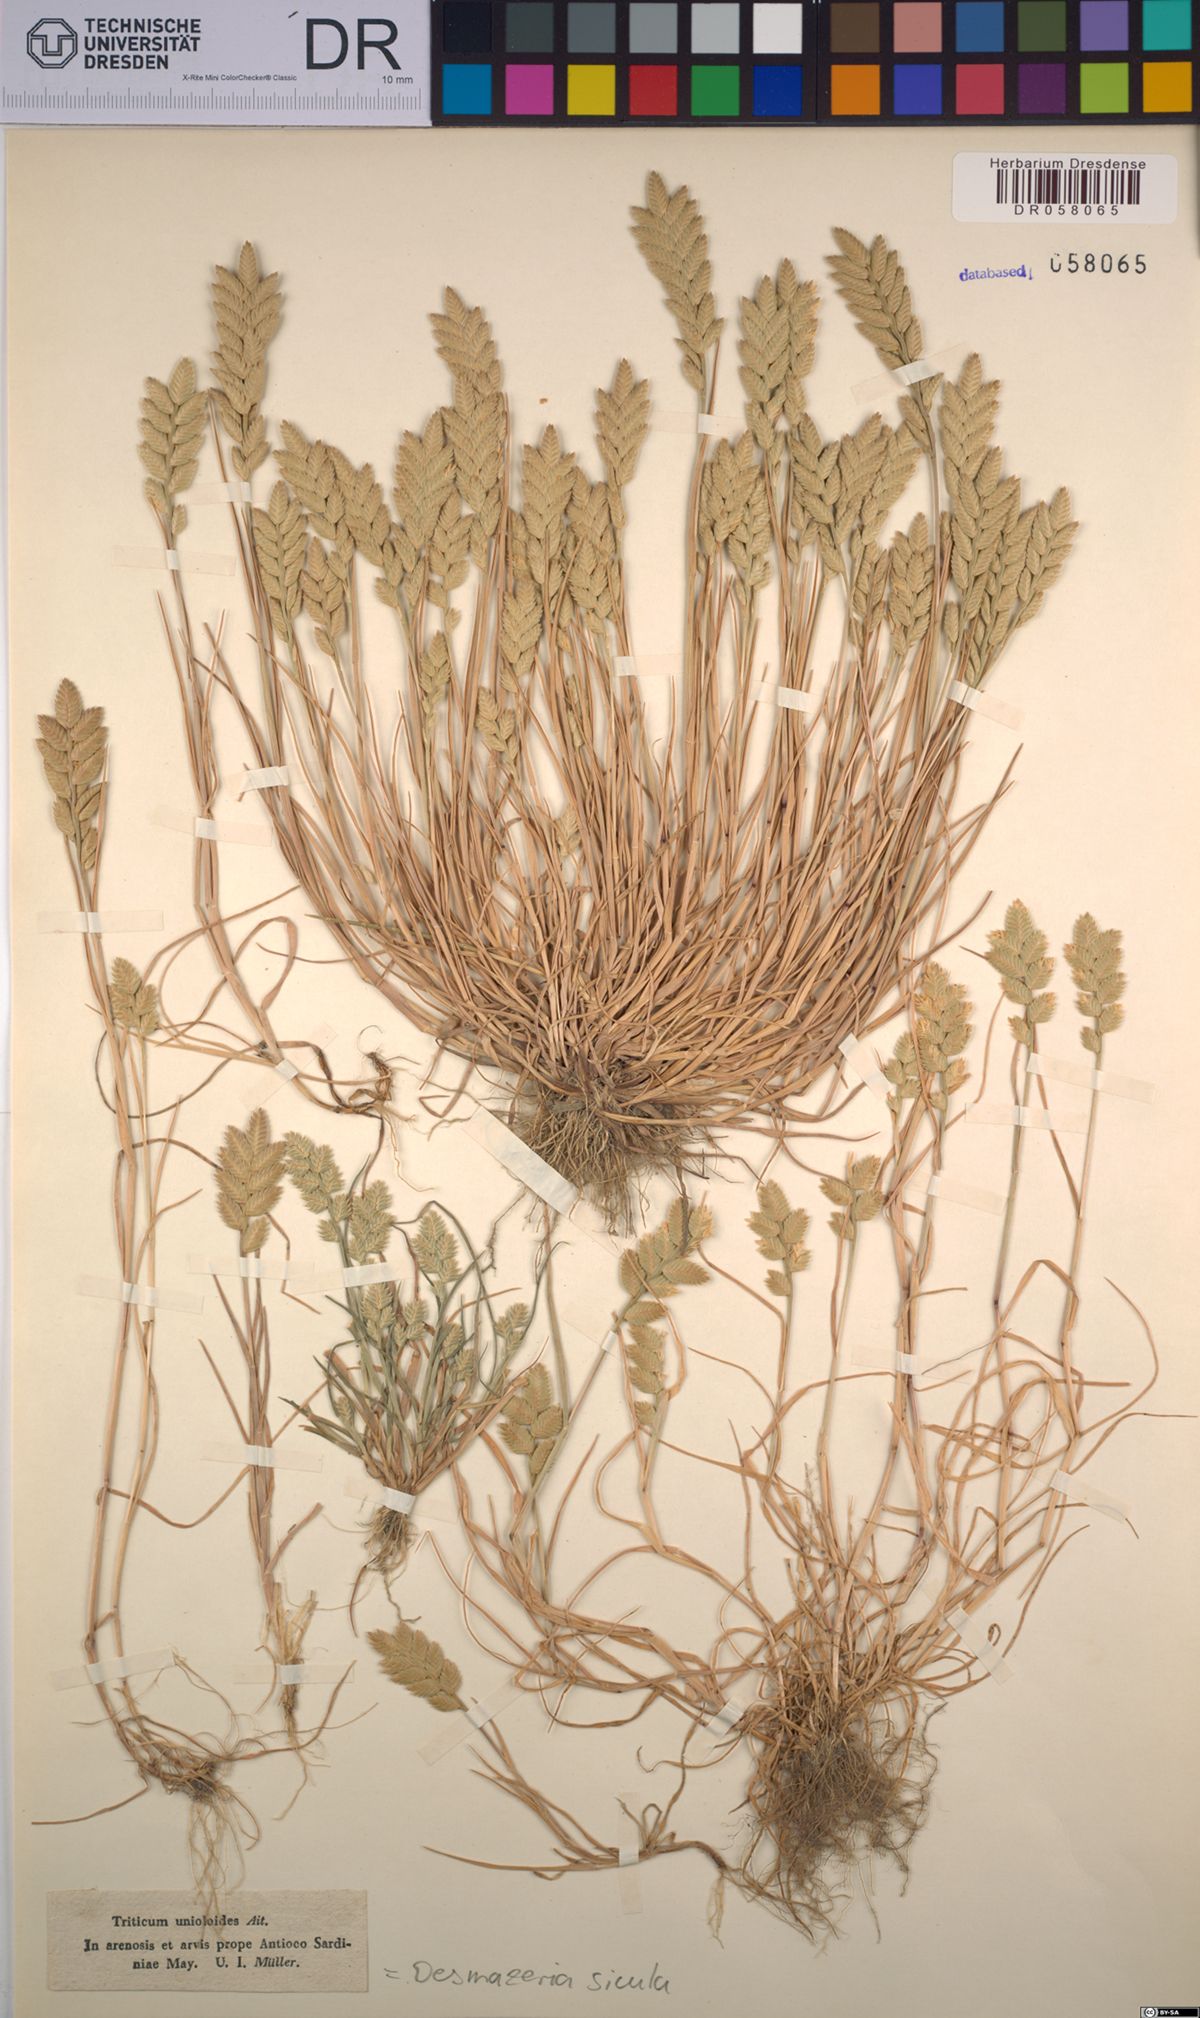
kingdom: Plantae
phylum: Tracheophyta
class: Liliopsida
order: Poales
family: Poaceae
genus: Desmazeria
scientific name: Desmazeria sicula
